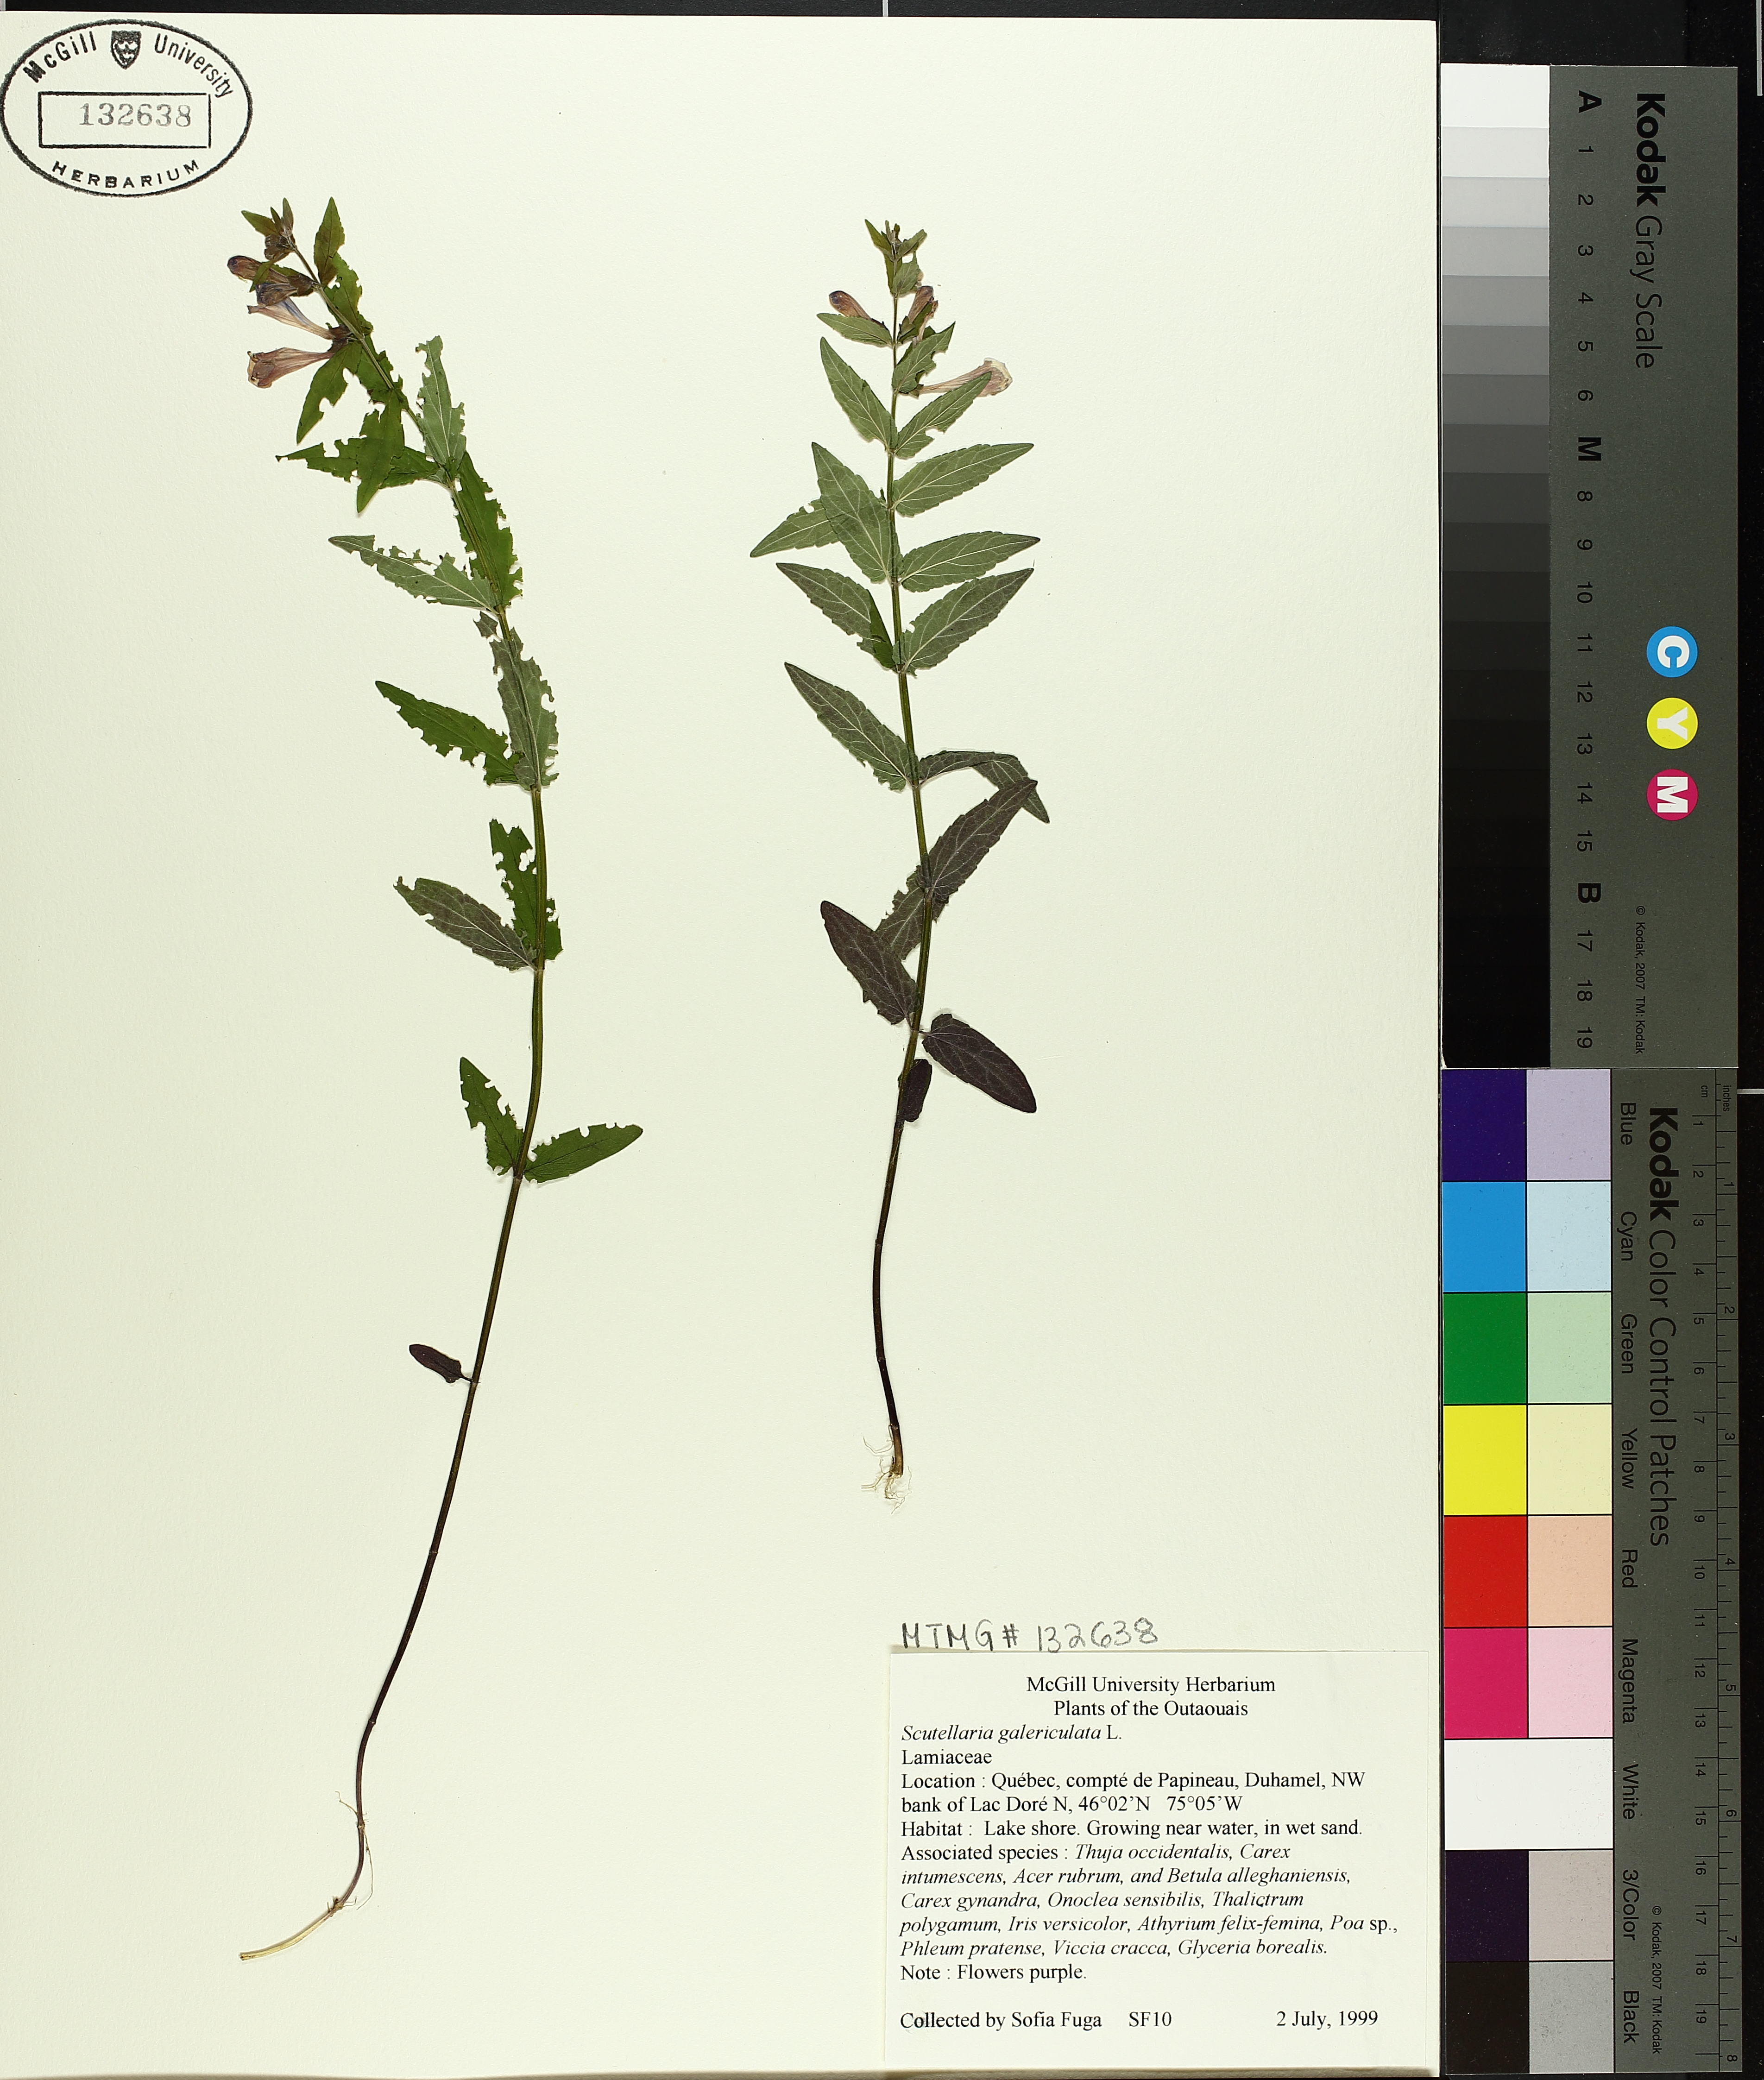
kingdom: Plantae
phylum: Tracheophyta
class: Magnoliopsida
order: Lamiales
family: Lamiaceae
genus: Scutellaria
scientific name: Scutellaria galericulata
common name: Skullcap
